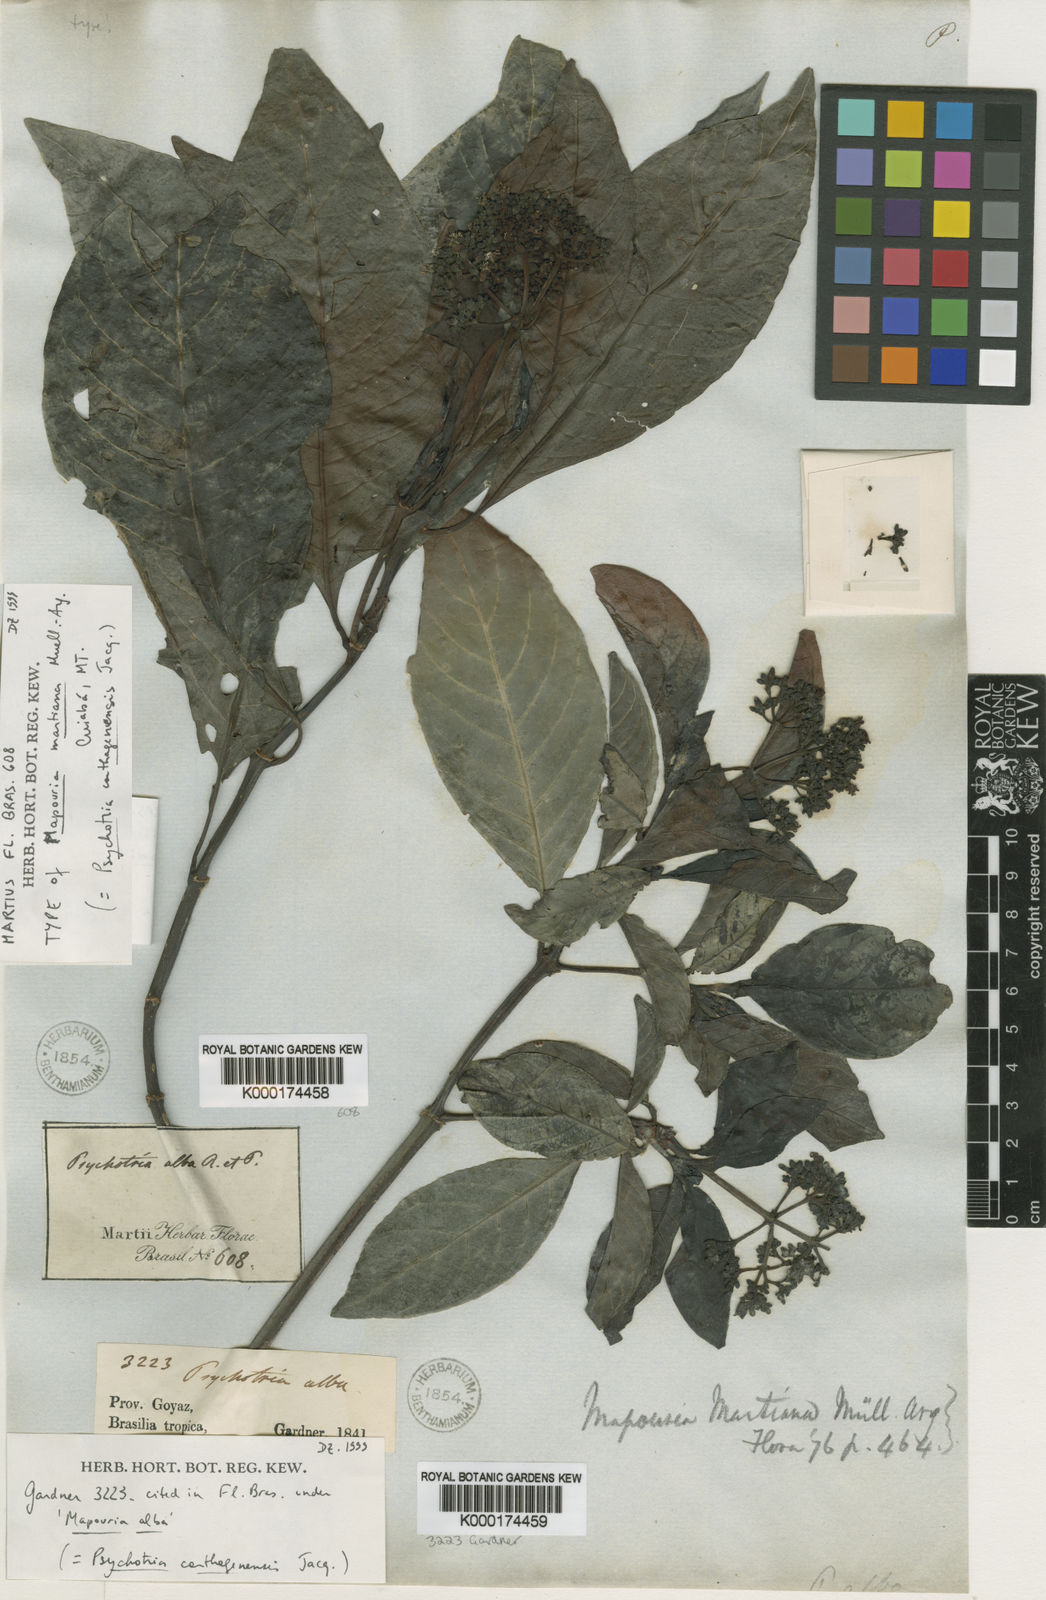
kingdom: Plantae
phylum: Tracheophyta
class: Magnoliopsida
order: Gentianales
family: Rubiaceae
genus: Psychotria
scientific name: Psychotria carthagenensis
